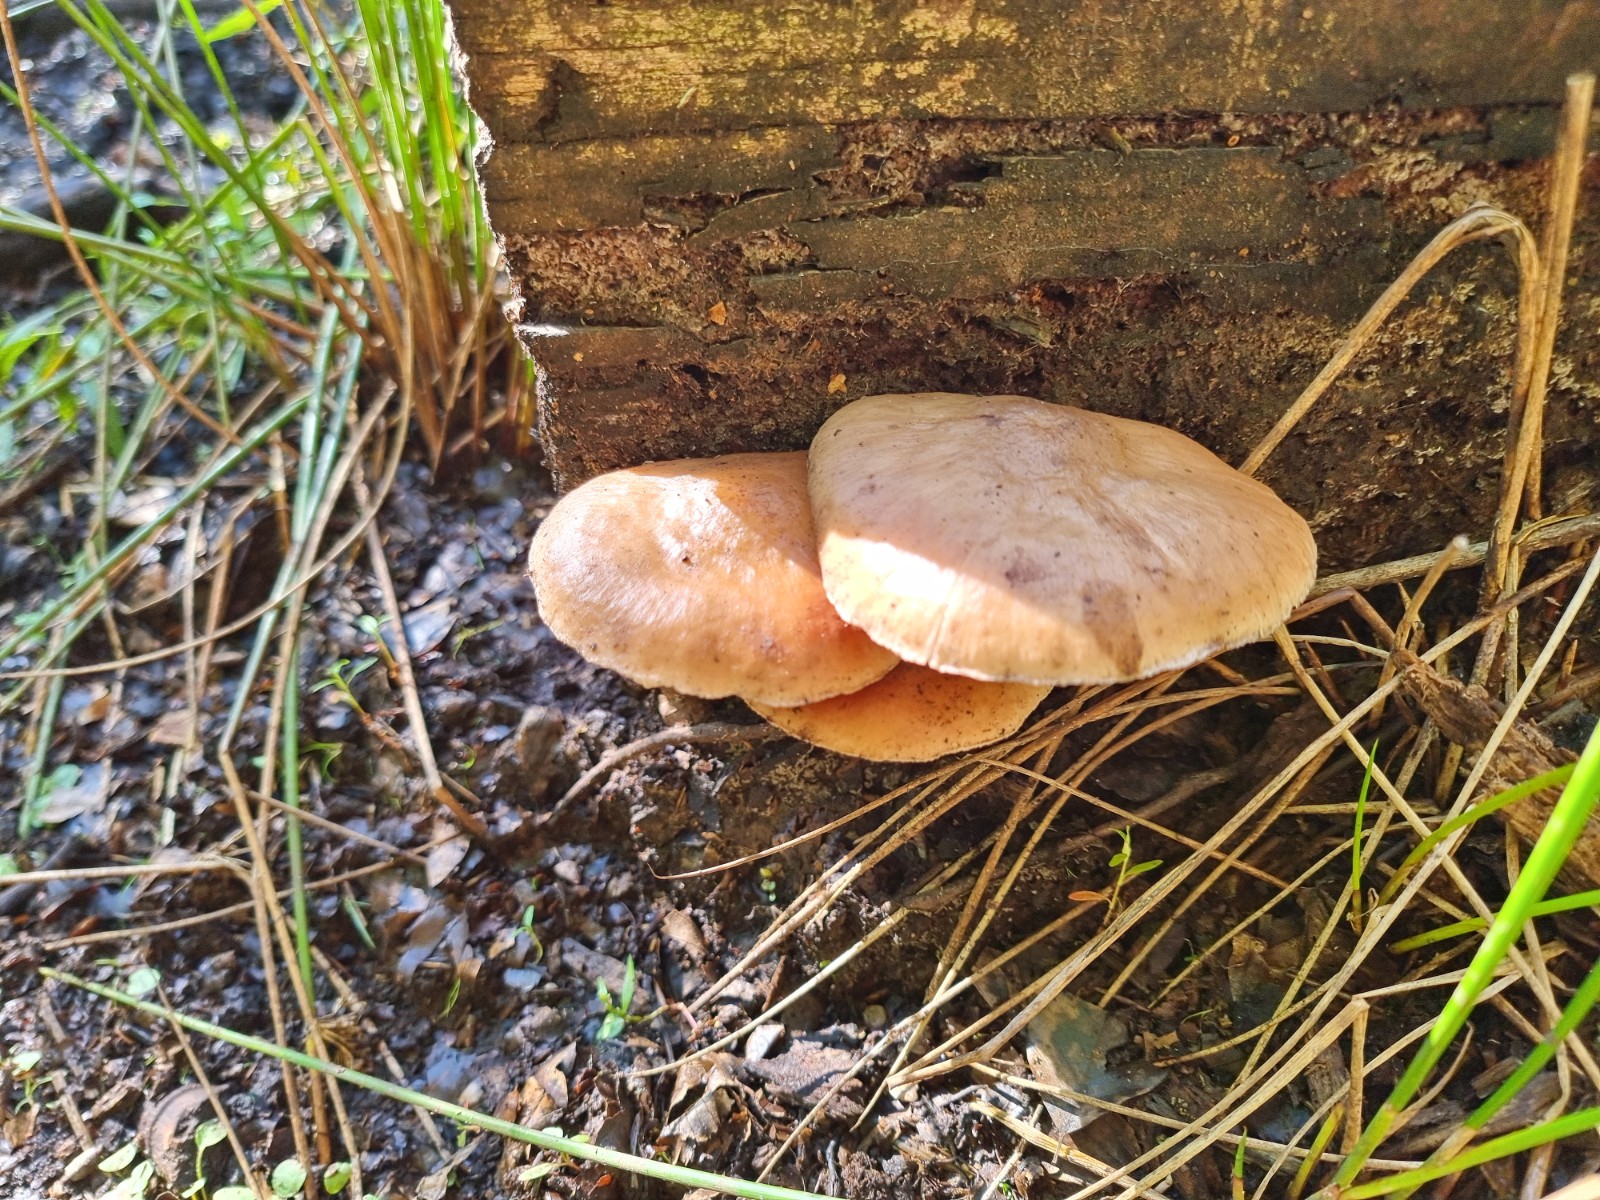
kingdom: Fungi
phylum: Basidiomycota
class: Agaricomycetes
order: Agaricales
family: Pluteaceae
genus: Pluteus
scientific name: Pluteus
